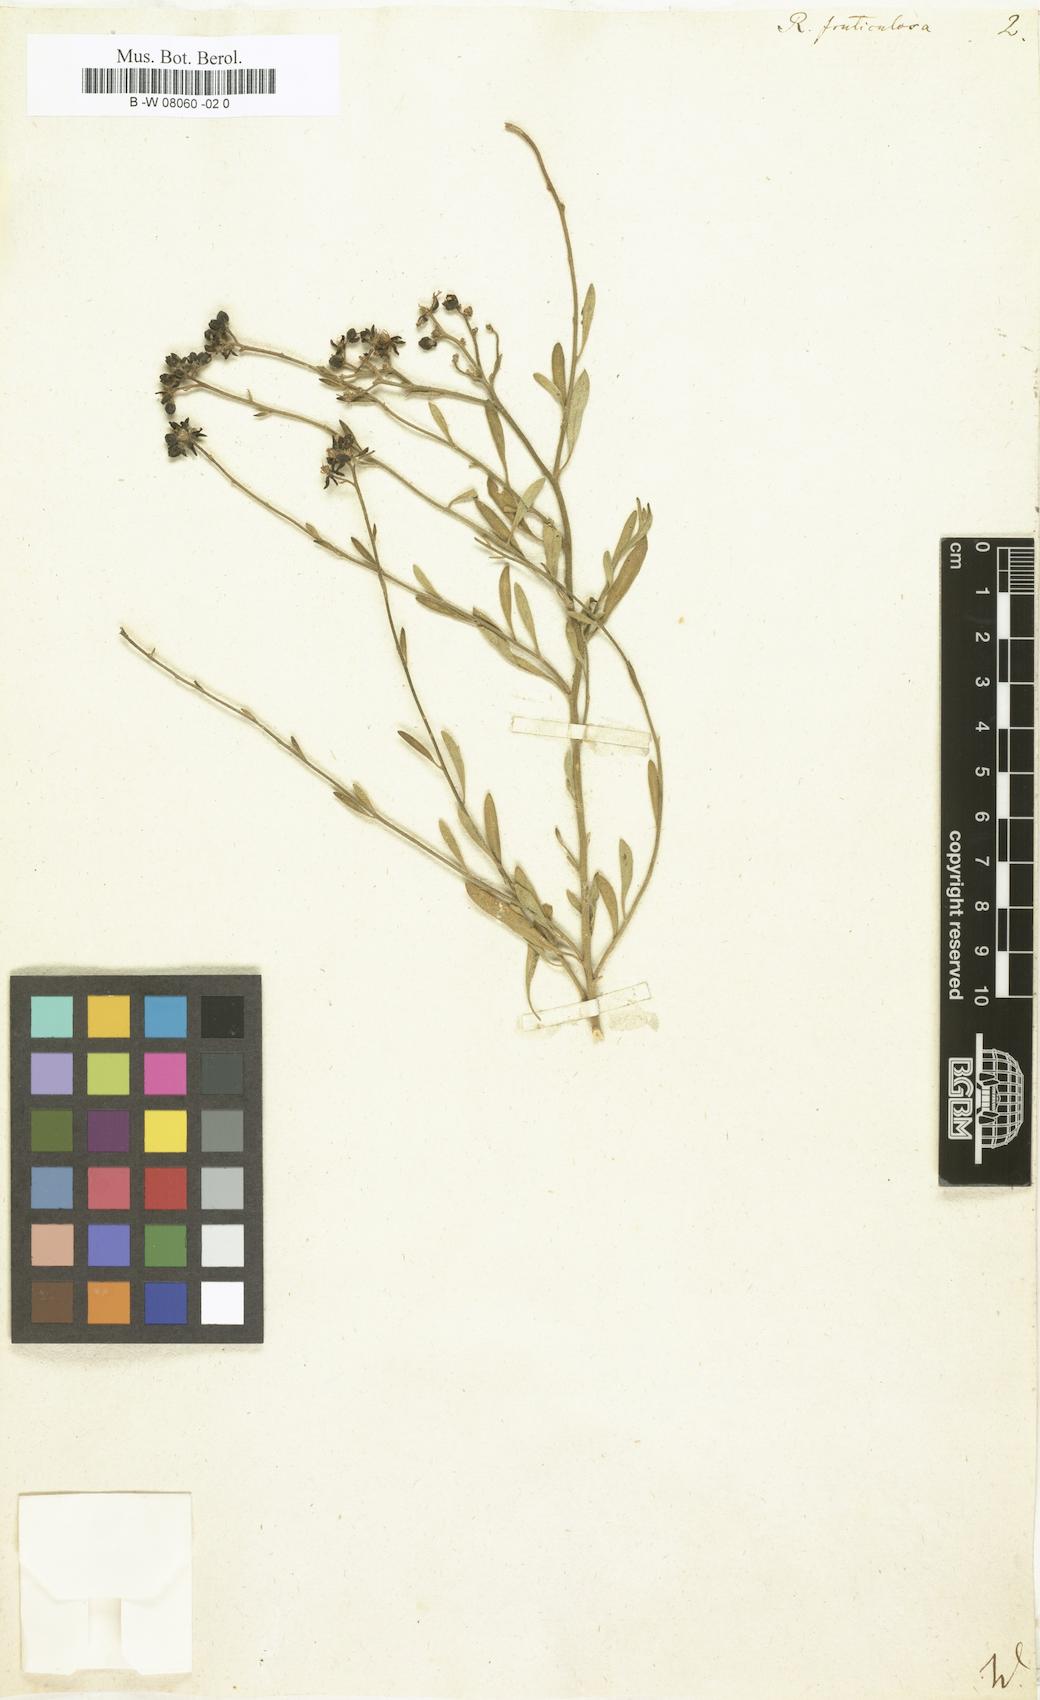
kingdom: Plantae
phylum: Tracheophyta
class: Magnoliopsida
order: Sapindales
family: Rutaceae
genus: Haplophyllum
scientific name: Haplophyllum fruticulosum
